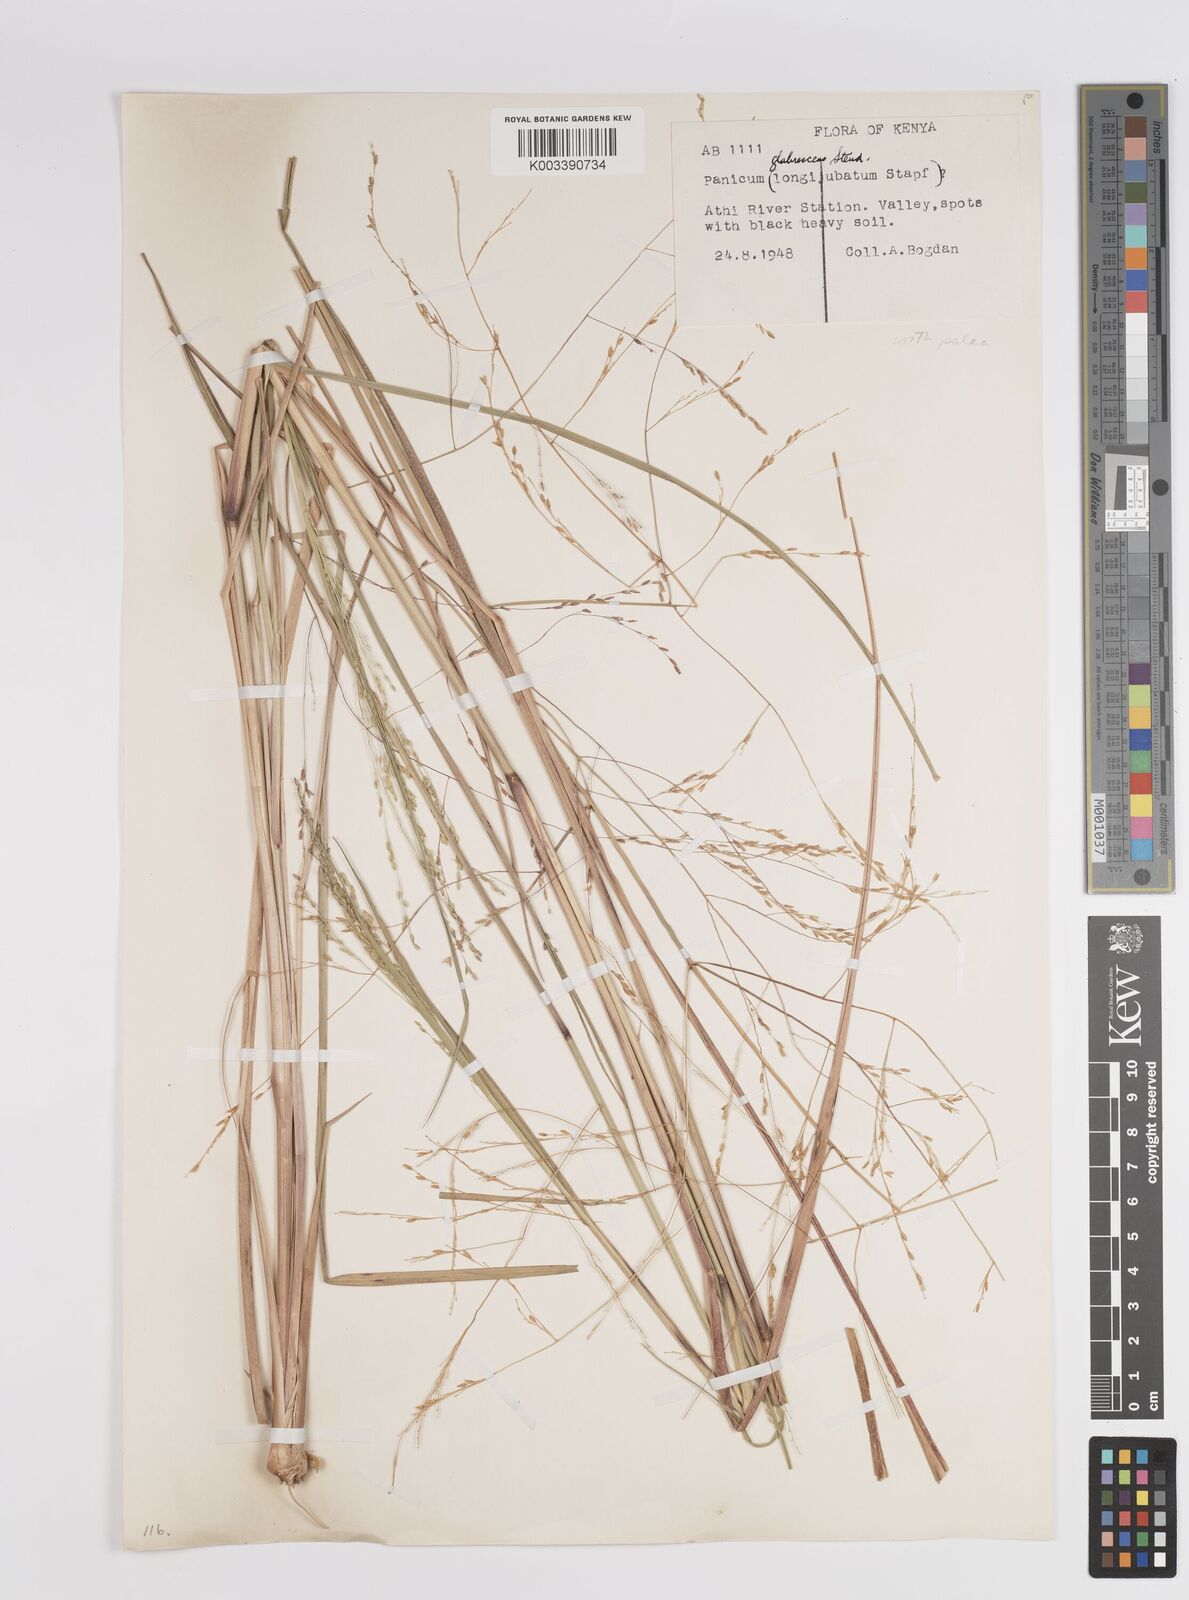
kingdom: Plantae
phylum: Tracheophyta
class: Liliopsida
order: Poales
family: Poaceae
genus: Panicum
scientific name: Panicum porphyrrhizos
